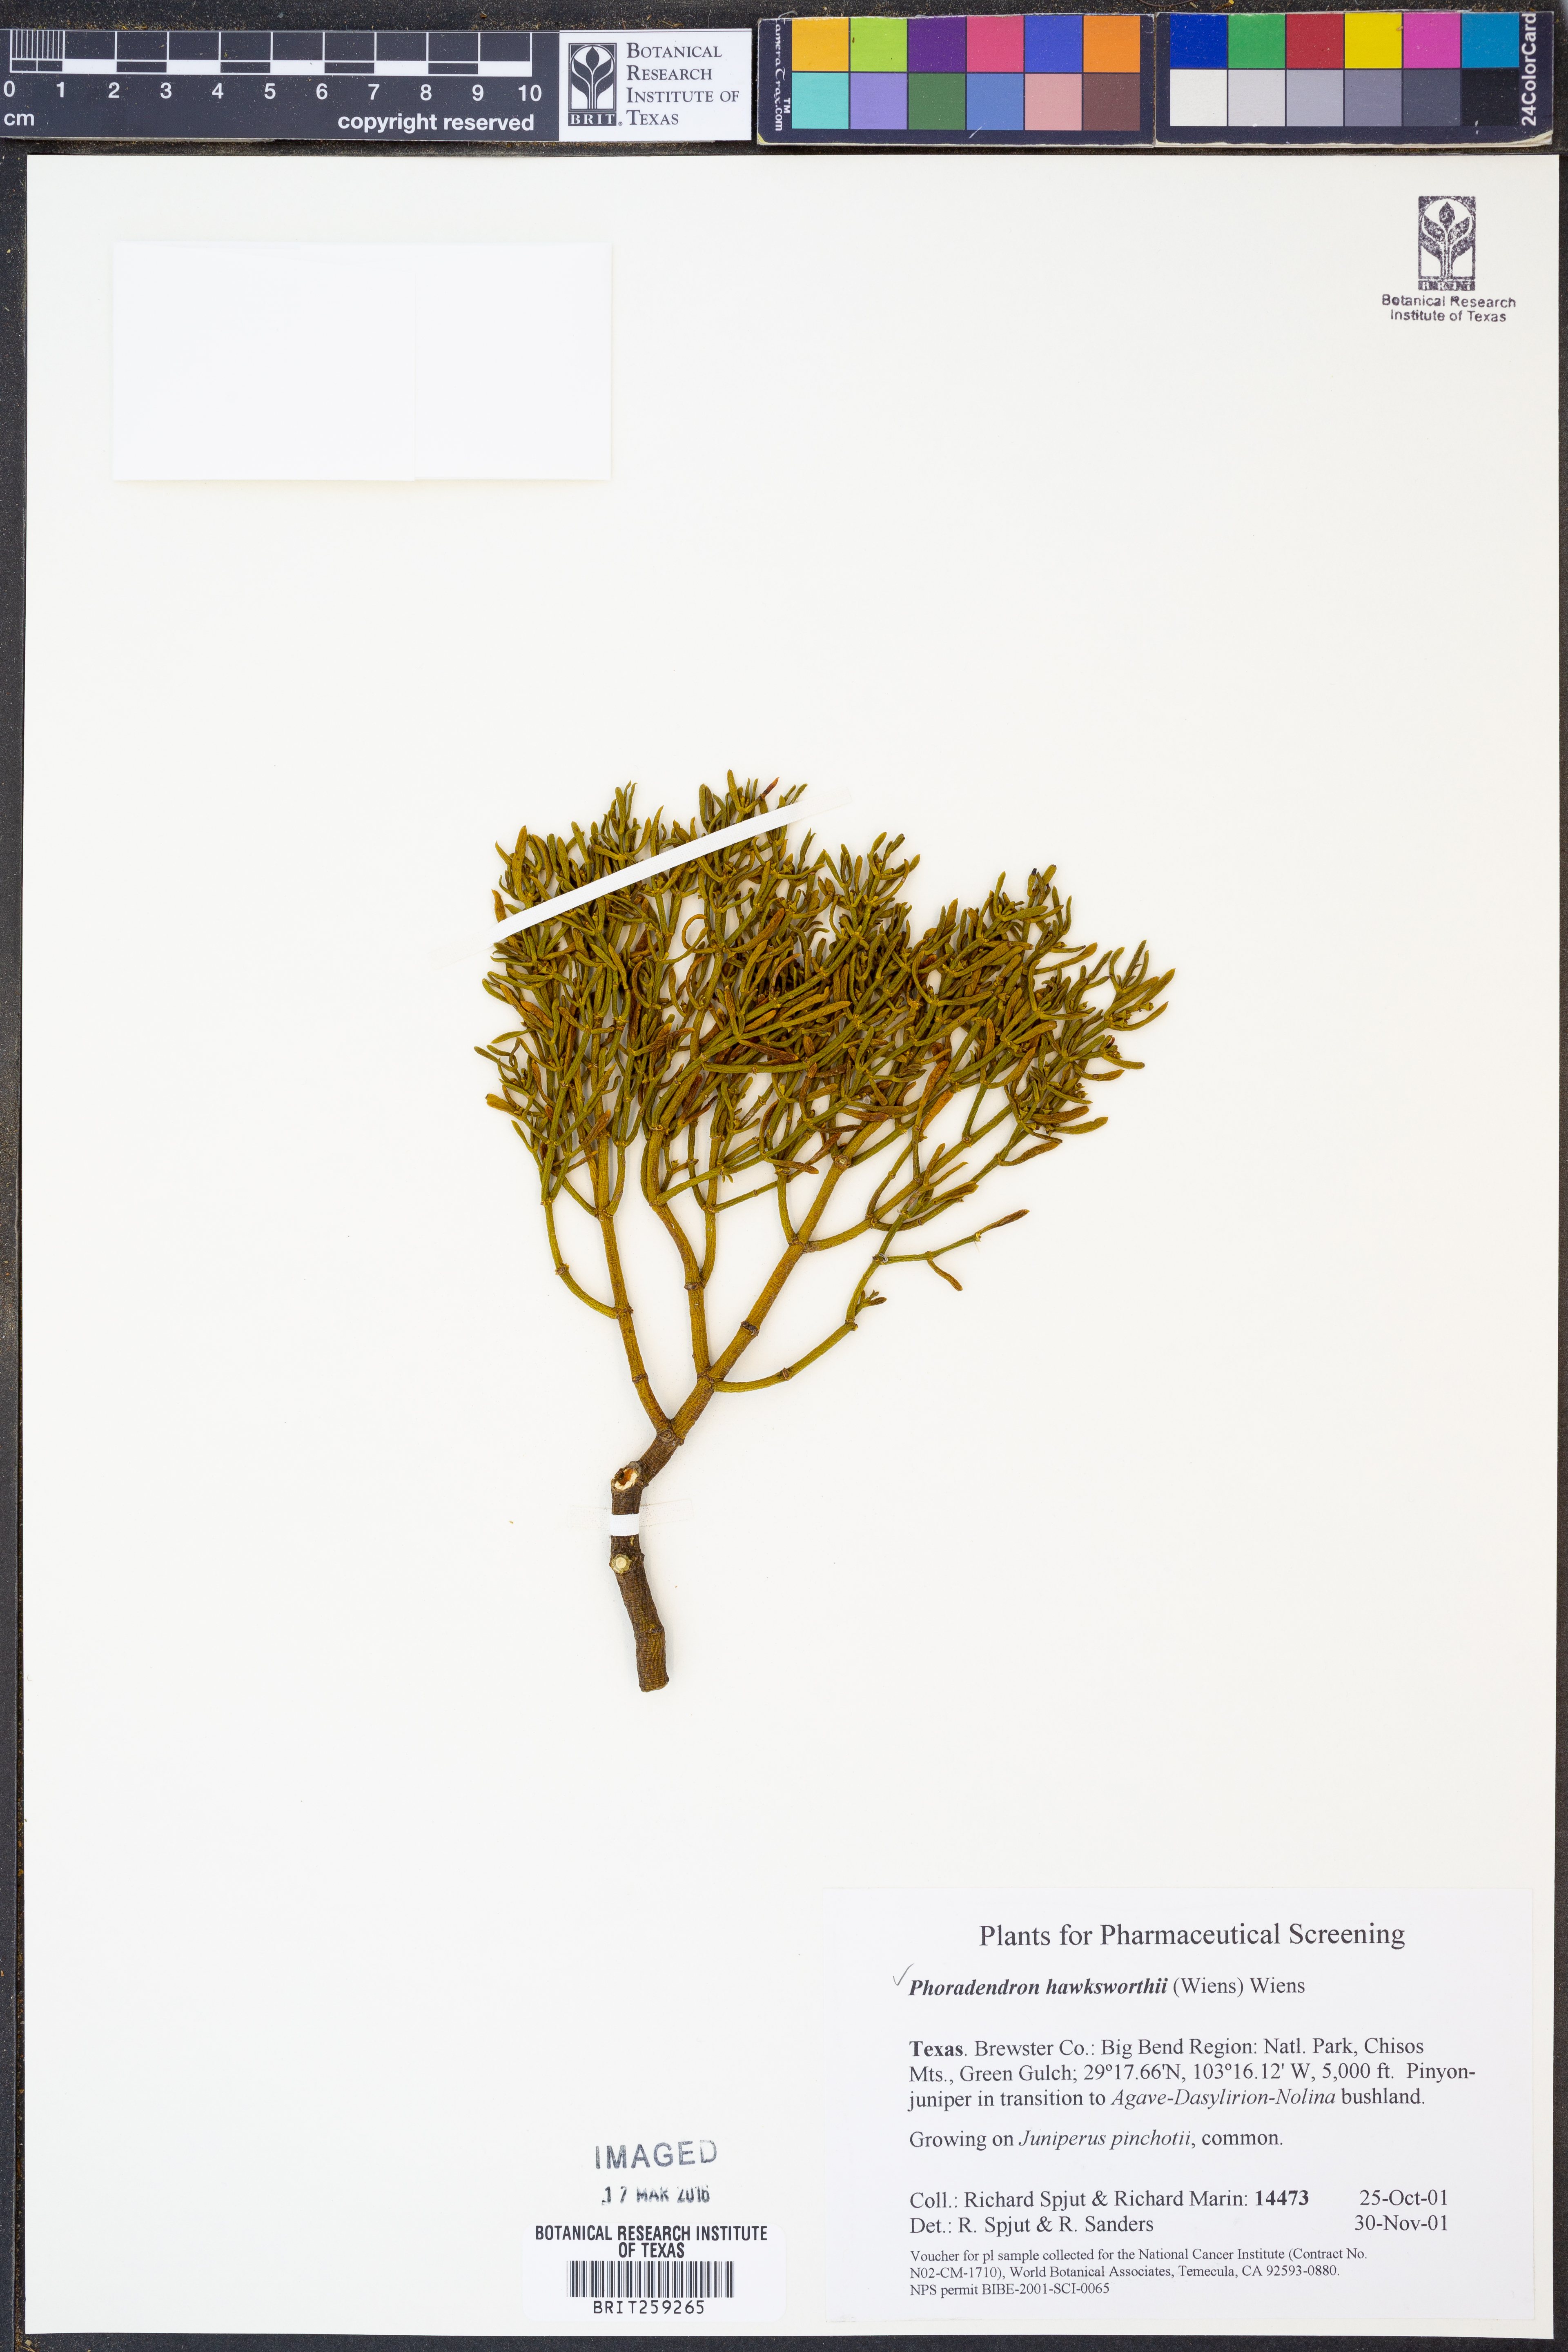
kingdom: Plantae
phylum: Tracheophyta
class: Magnoliopsida
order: Santalales
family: Viscaceae
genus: Phoradendron
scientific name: Phoradendron hawksworthii
